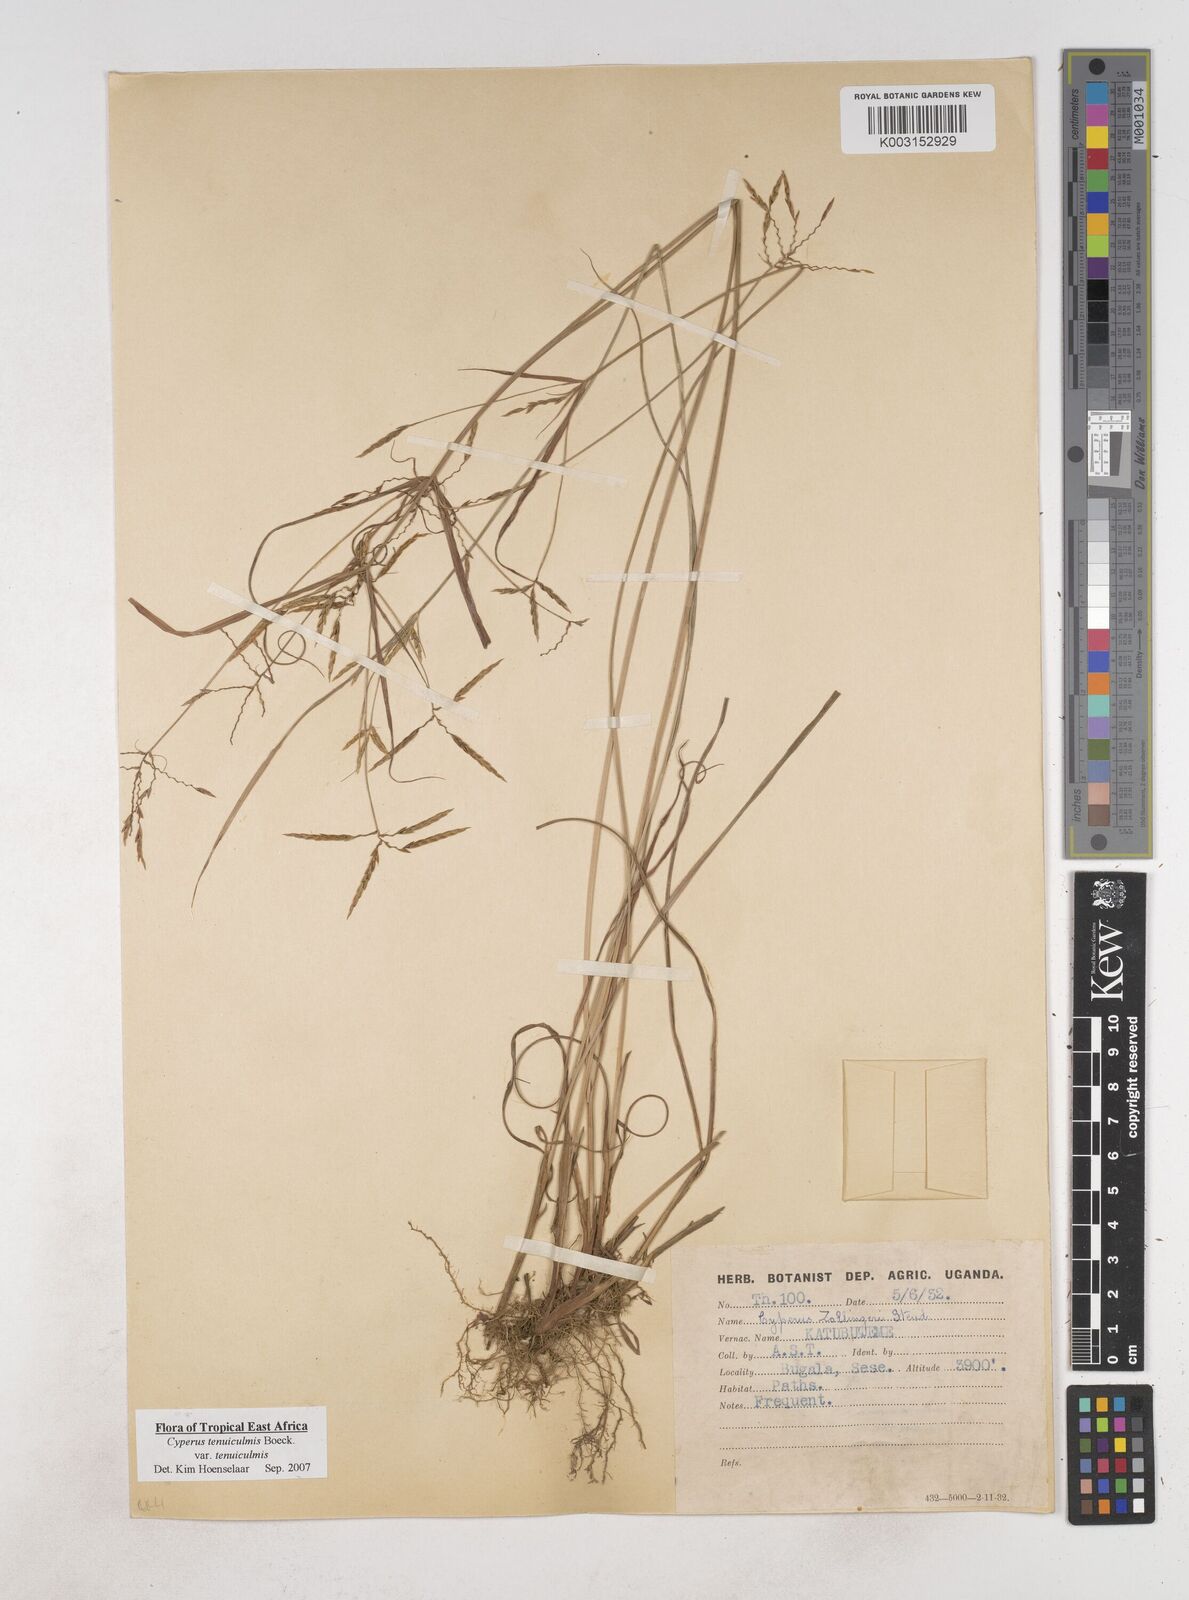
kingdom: Plantae
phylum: Tracheophyta
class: Liliopsida
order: Poales
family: Cyperaceae
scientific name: Cyperaceae
